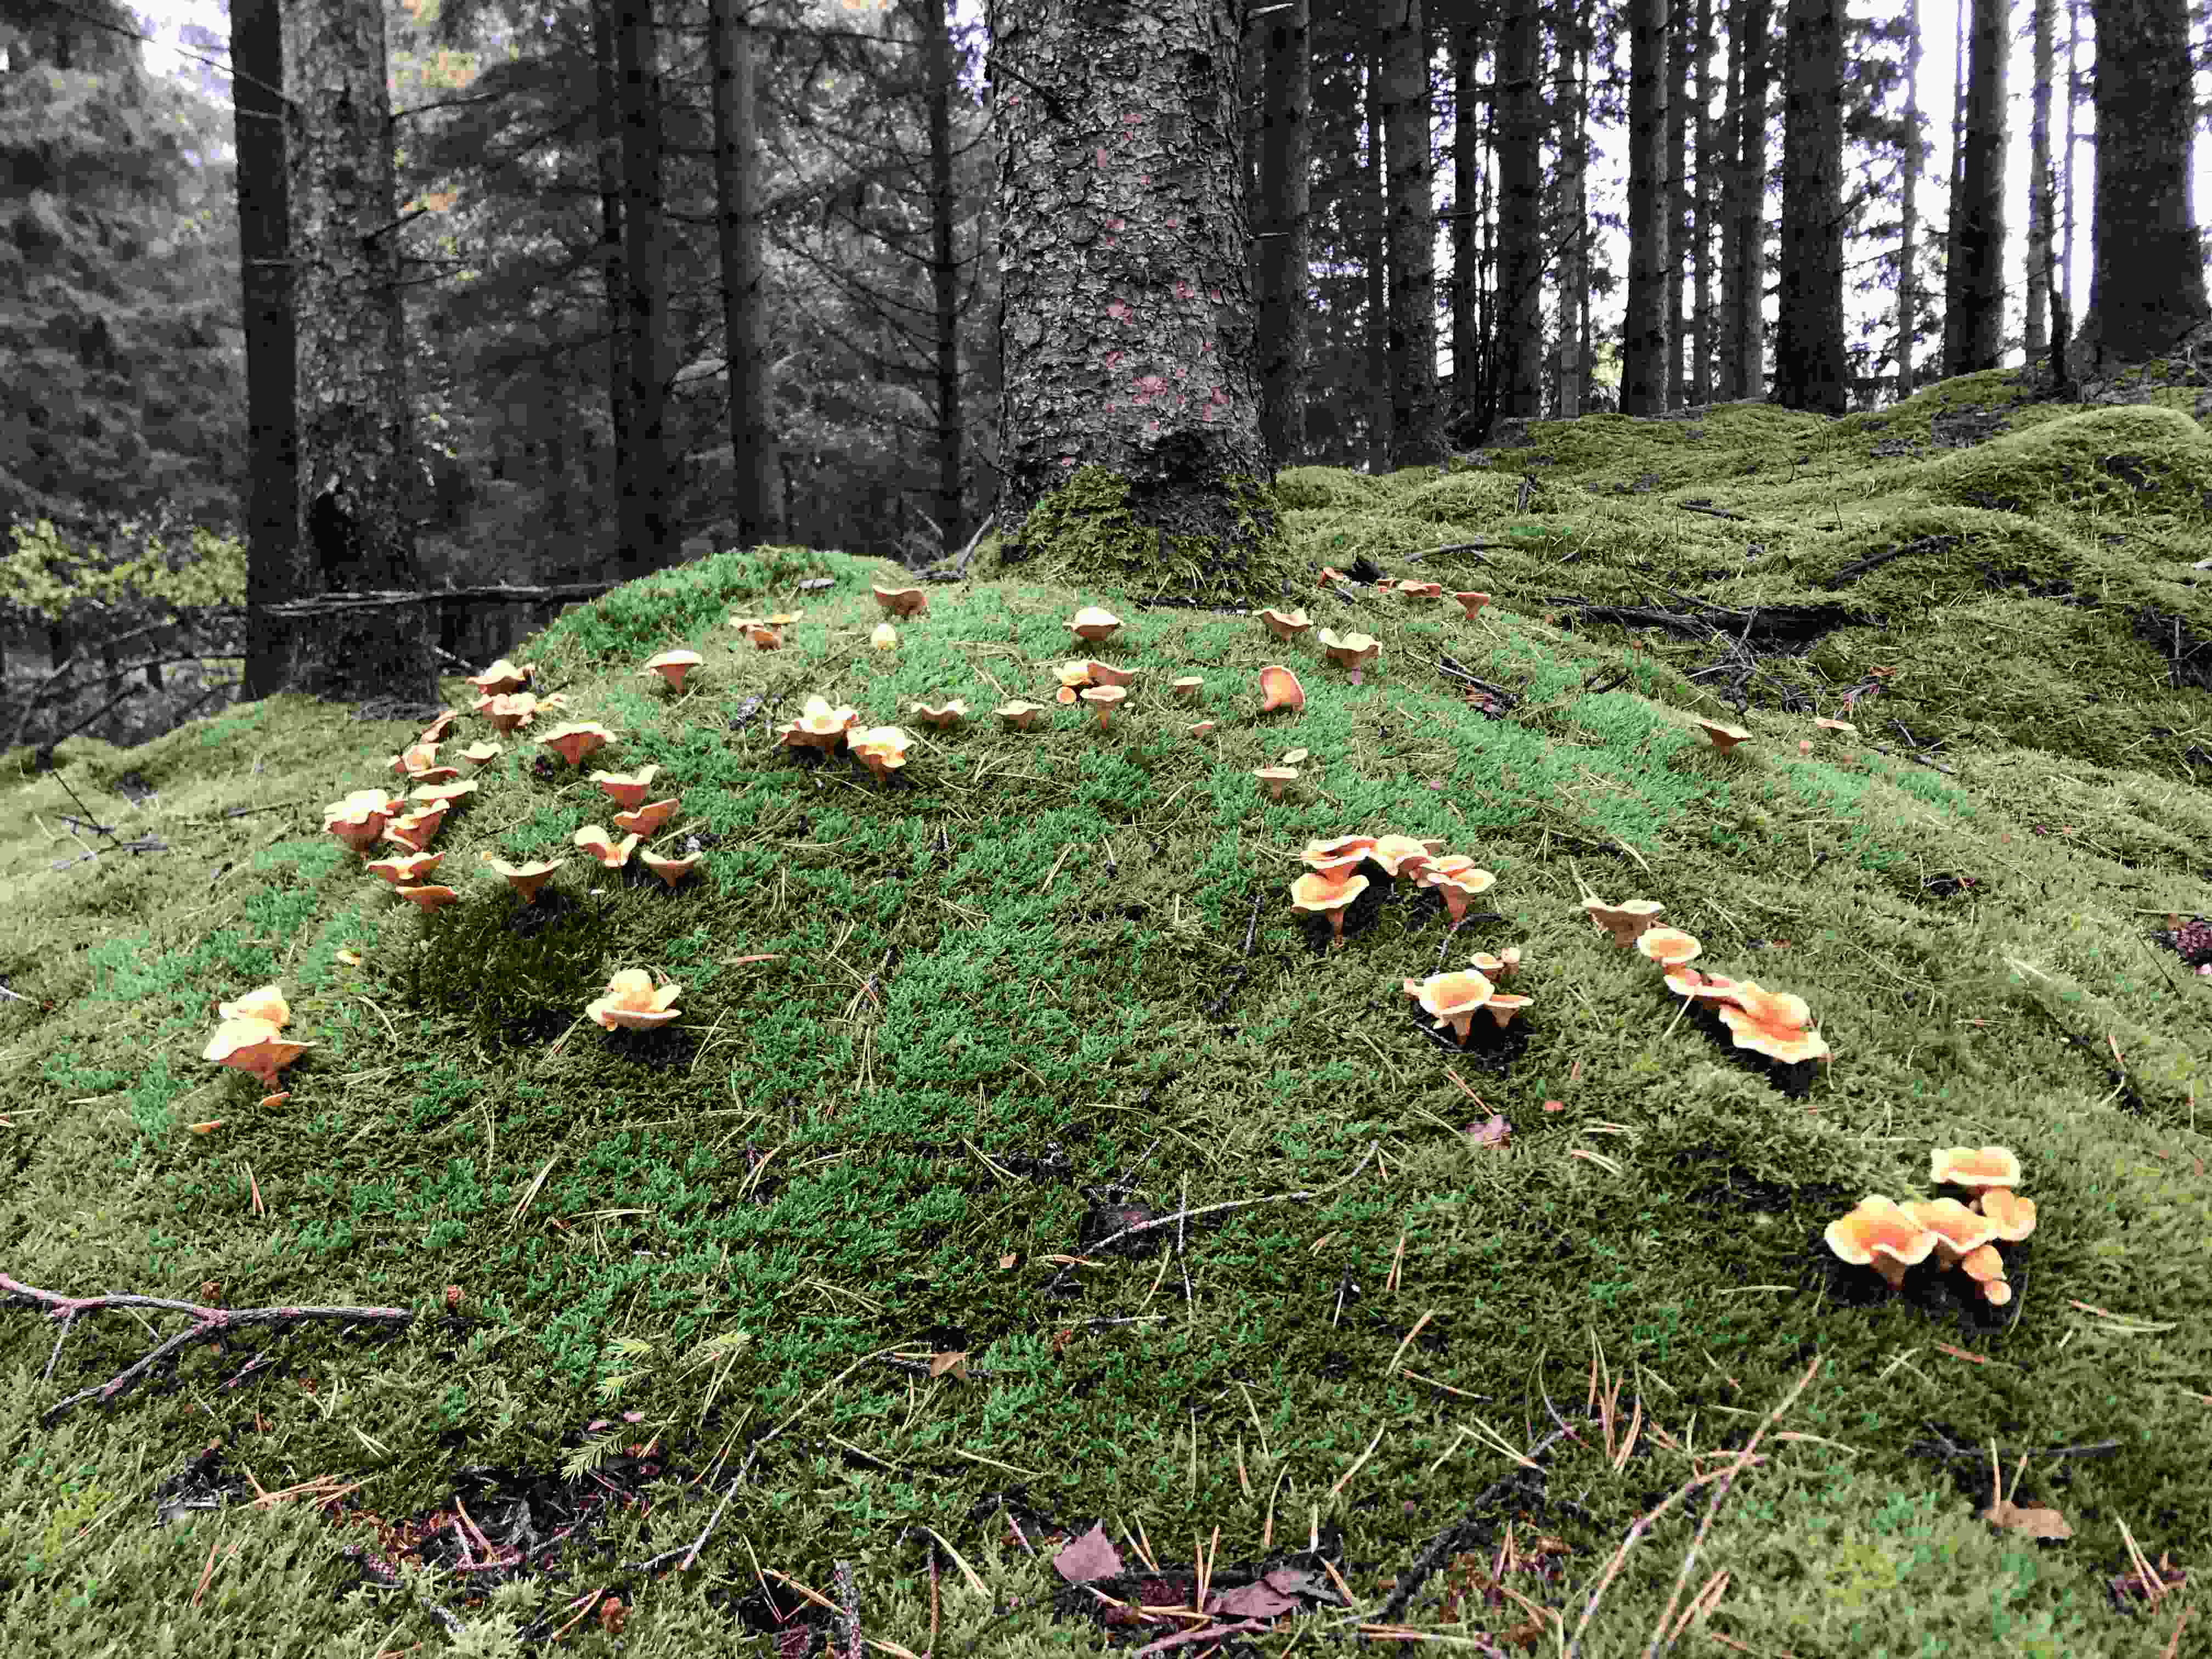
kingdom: Fungi
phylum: Basidiomycota
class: Agaricomycetes
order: Boletales
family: Hygrophoropsidaceae
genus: Hygrophoropsis
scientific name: Hygrophoropsis aurantiaca
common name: almindelig orangekantarel
